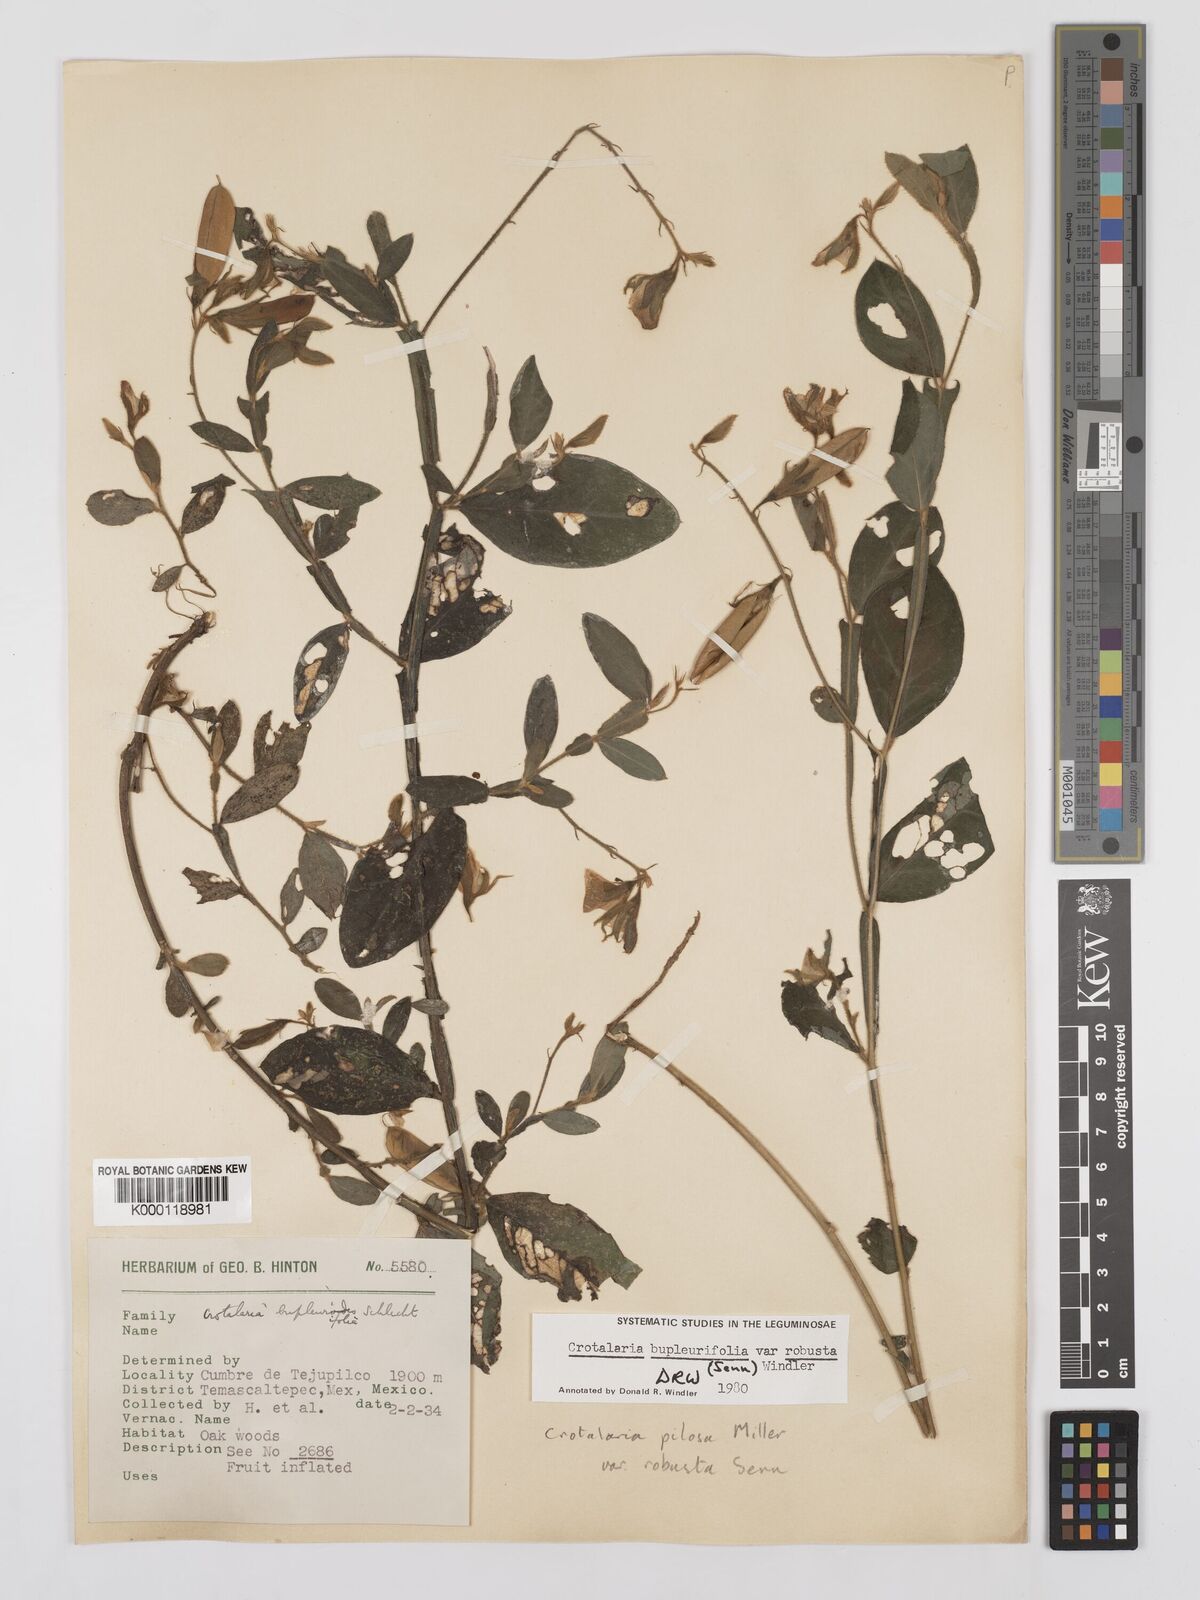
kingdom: Plantae
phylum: Tracheophyta
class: Magnoliopsida
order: Fabales
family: Fabaceae
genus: Crotalaria
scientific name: Crotalaria bupleurifolia
